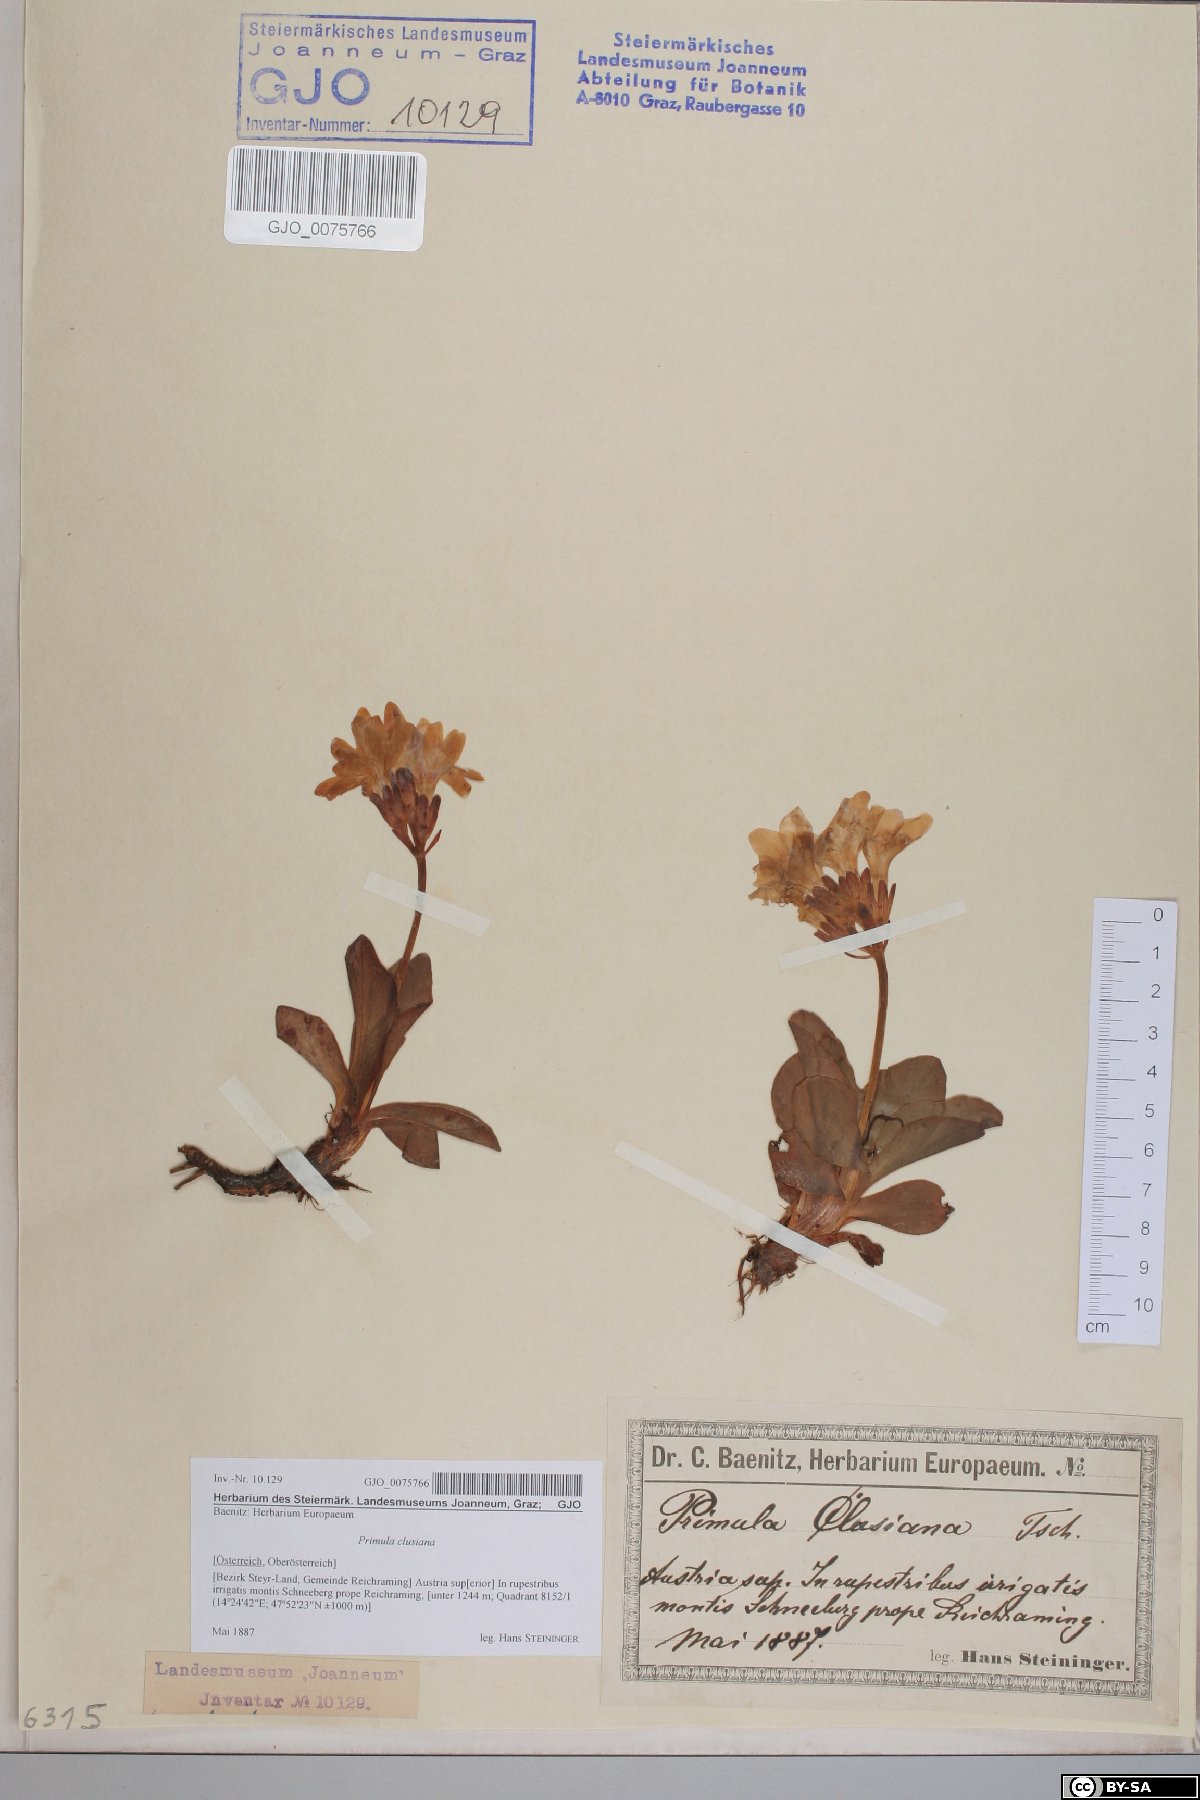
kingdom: Plantae
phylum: Tracheophyta
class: Magnoliopsida
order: Ericales
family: Primulaceae
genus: Primula
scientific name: Primula clusiana
